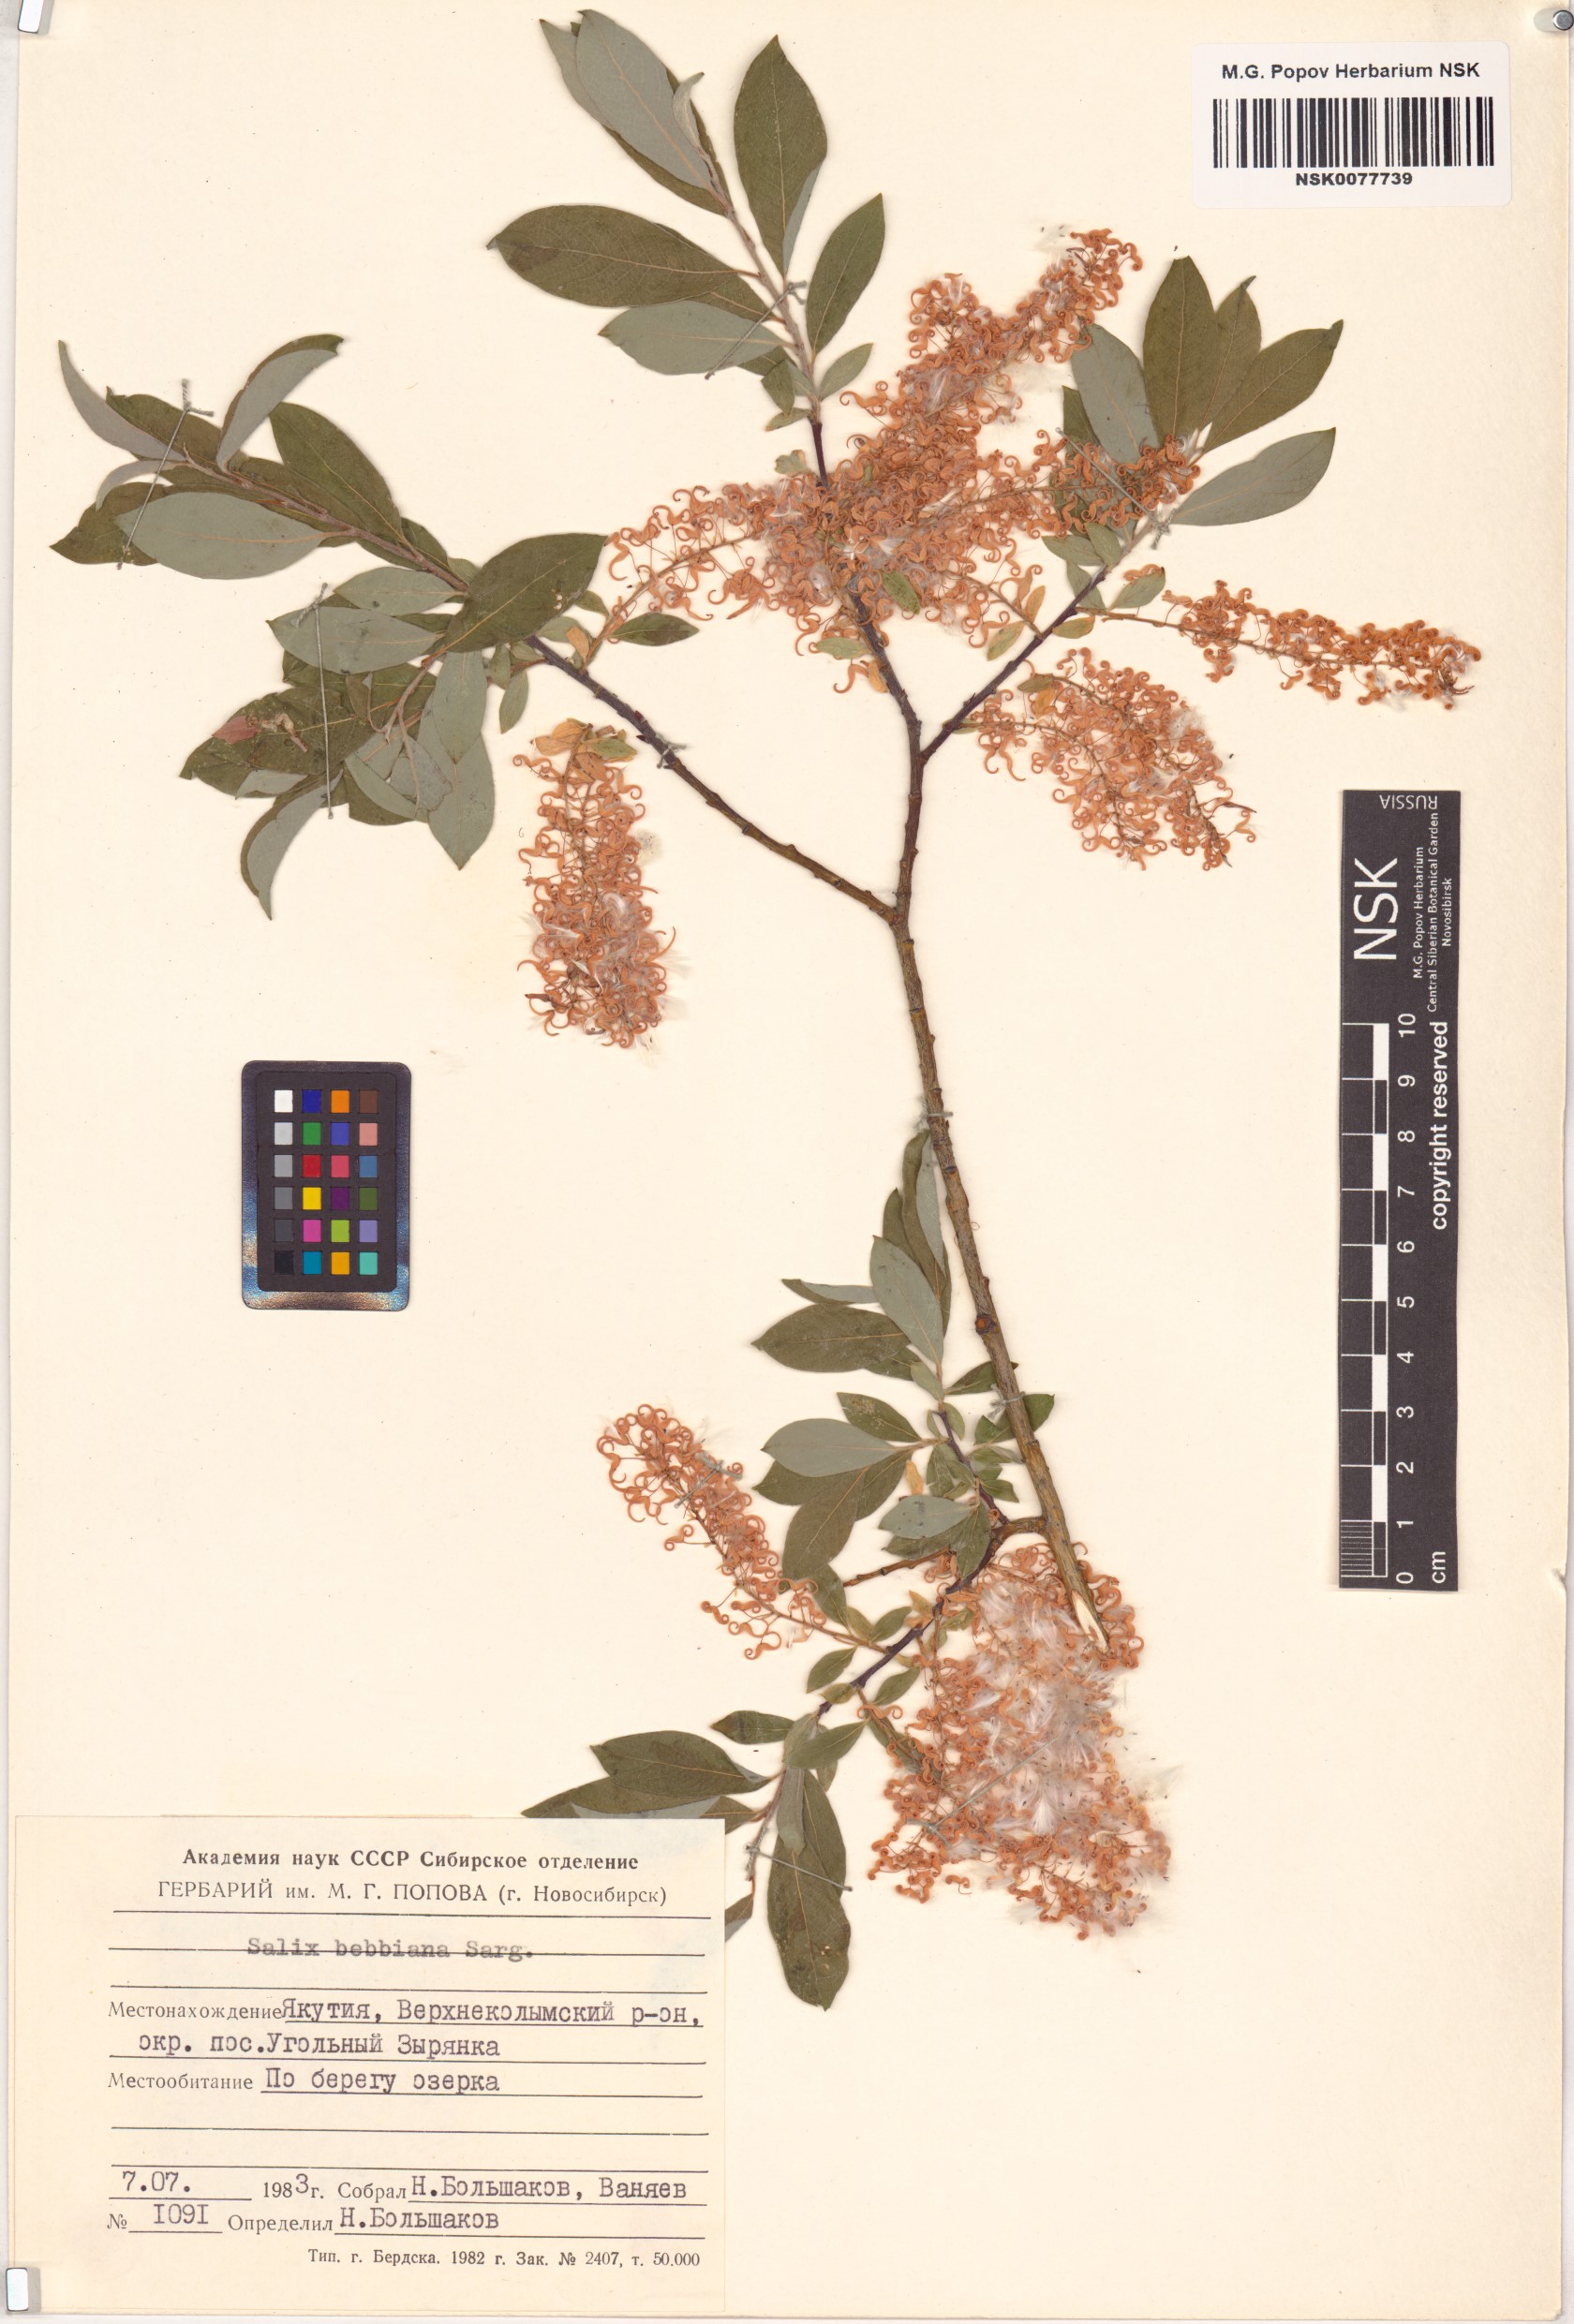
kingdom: Plantae
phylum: Tracheophyta
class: Magnoliopsida
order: Malpighiales
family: Salicaceae
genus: Salix
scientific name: Salix bebbiana
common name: Bebb's willow
